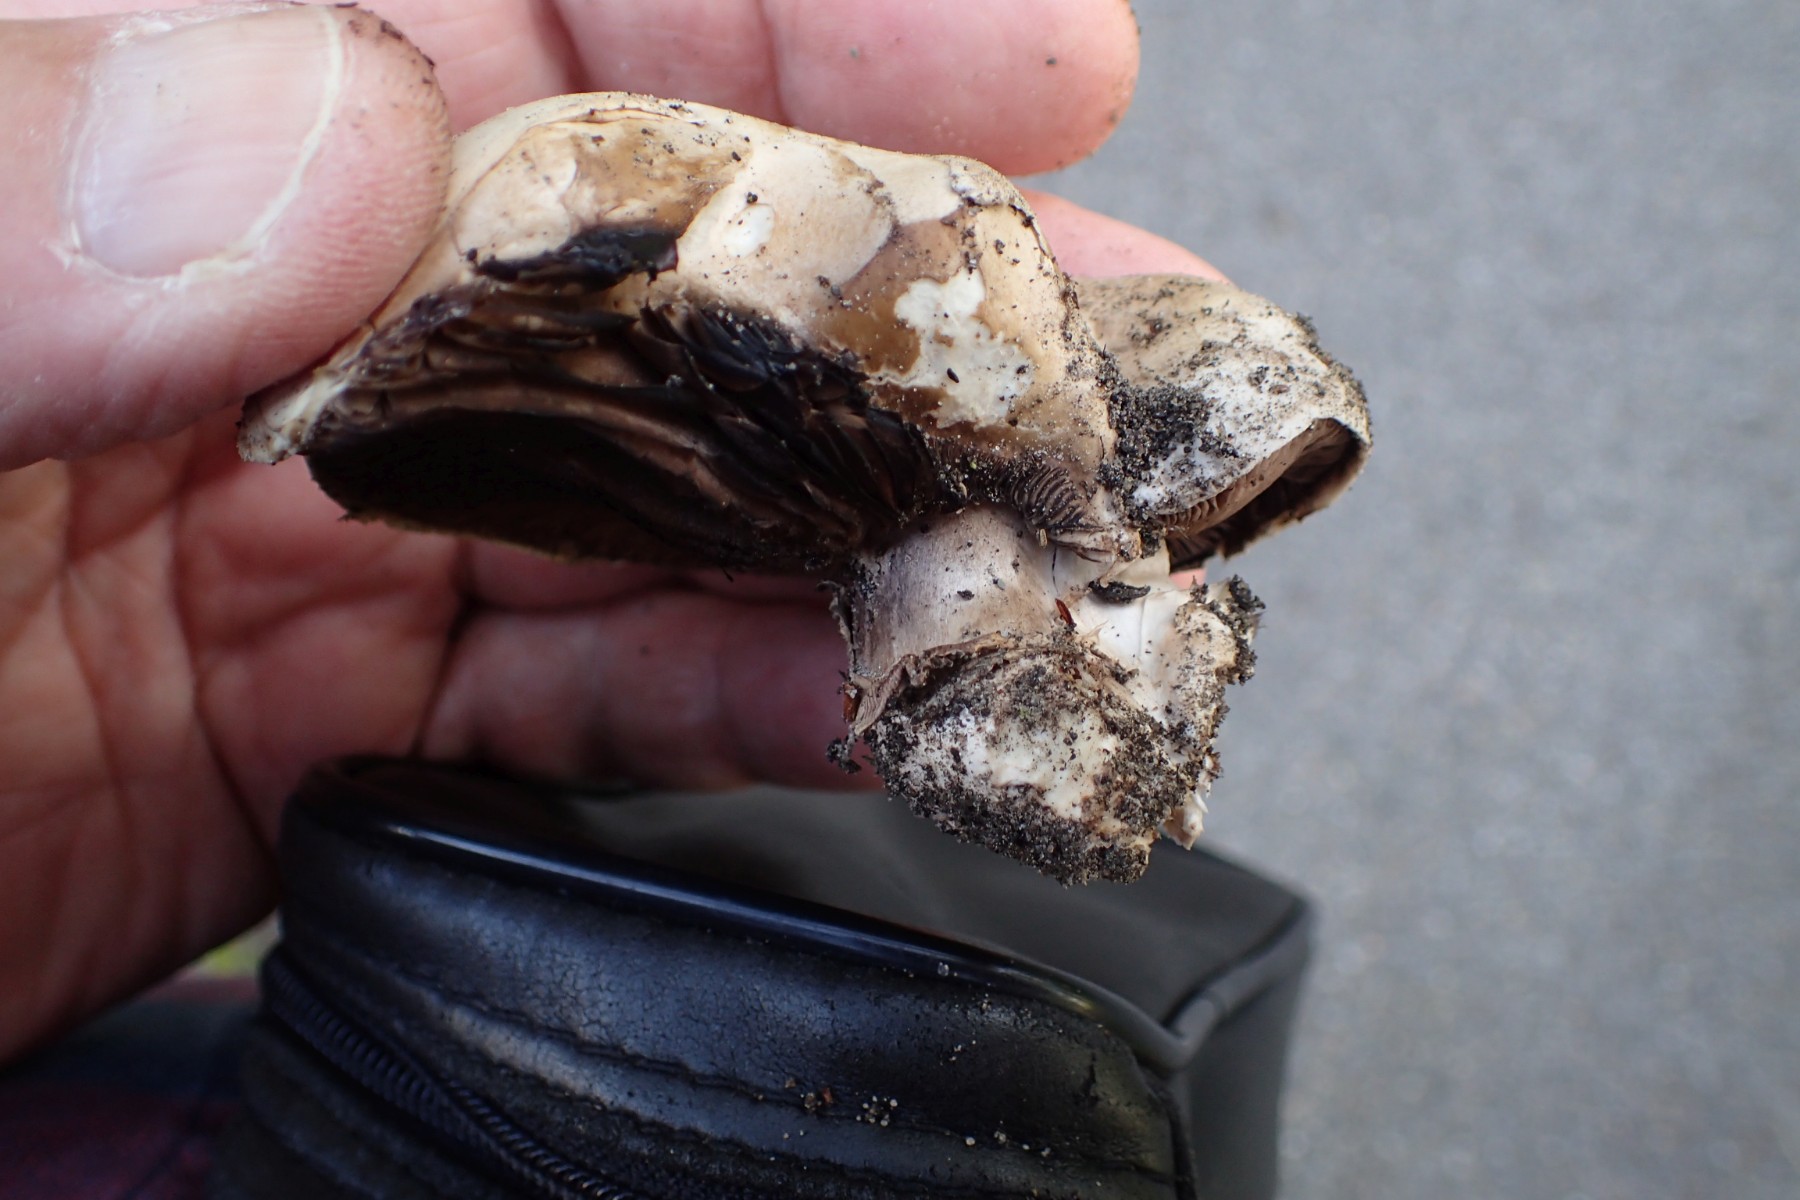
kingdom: Fungi
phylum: Basidiomycota
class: Agaricomycetes
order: Agaricales
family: Agaricaceae
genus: Agaricus
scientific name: Agaricus bitorquis
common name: vej-champignon
